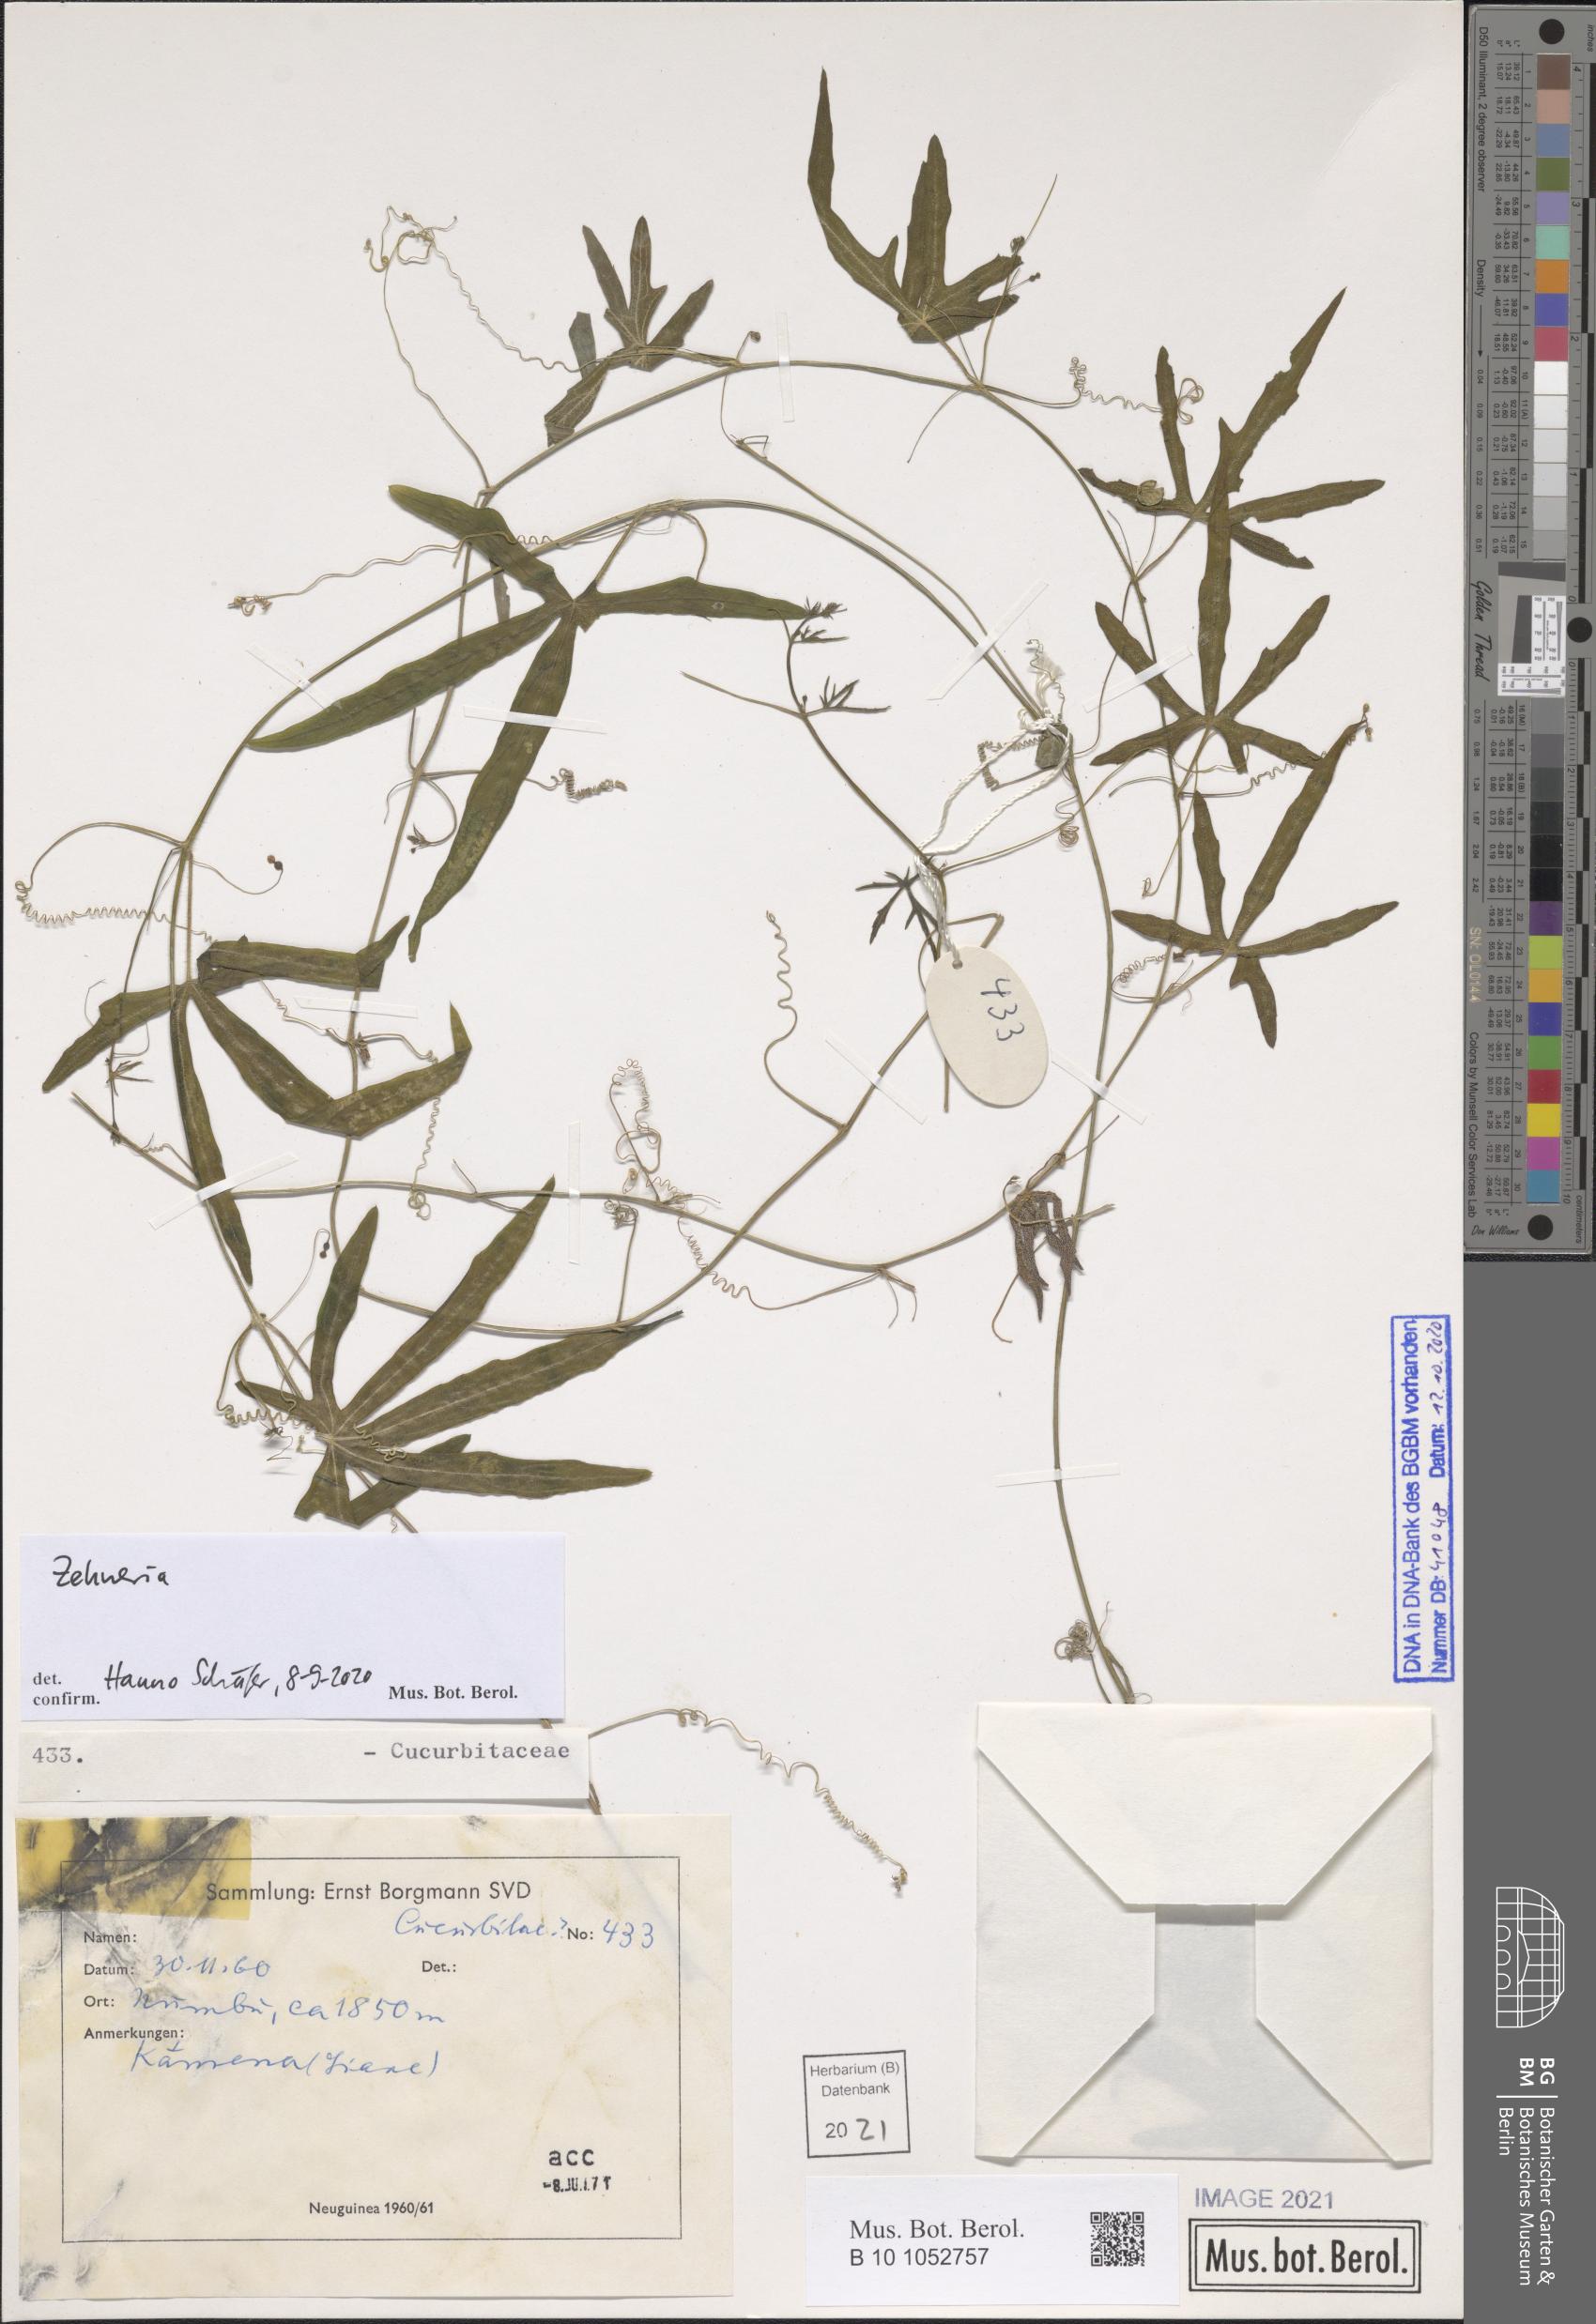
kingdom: Plantae
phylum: Tracheophyta
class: Magnoliopsida
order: Cucurbitales
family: Cucurbitaceae
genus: Zehneria
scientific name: Zehneria
